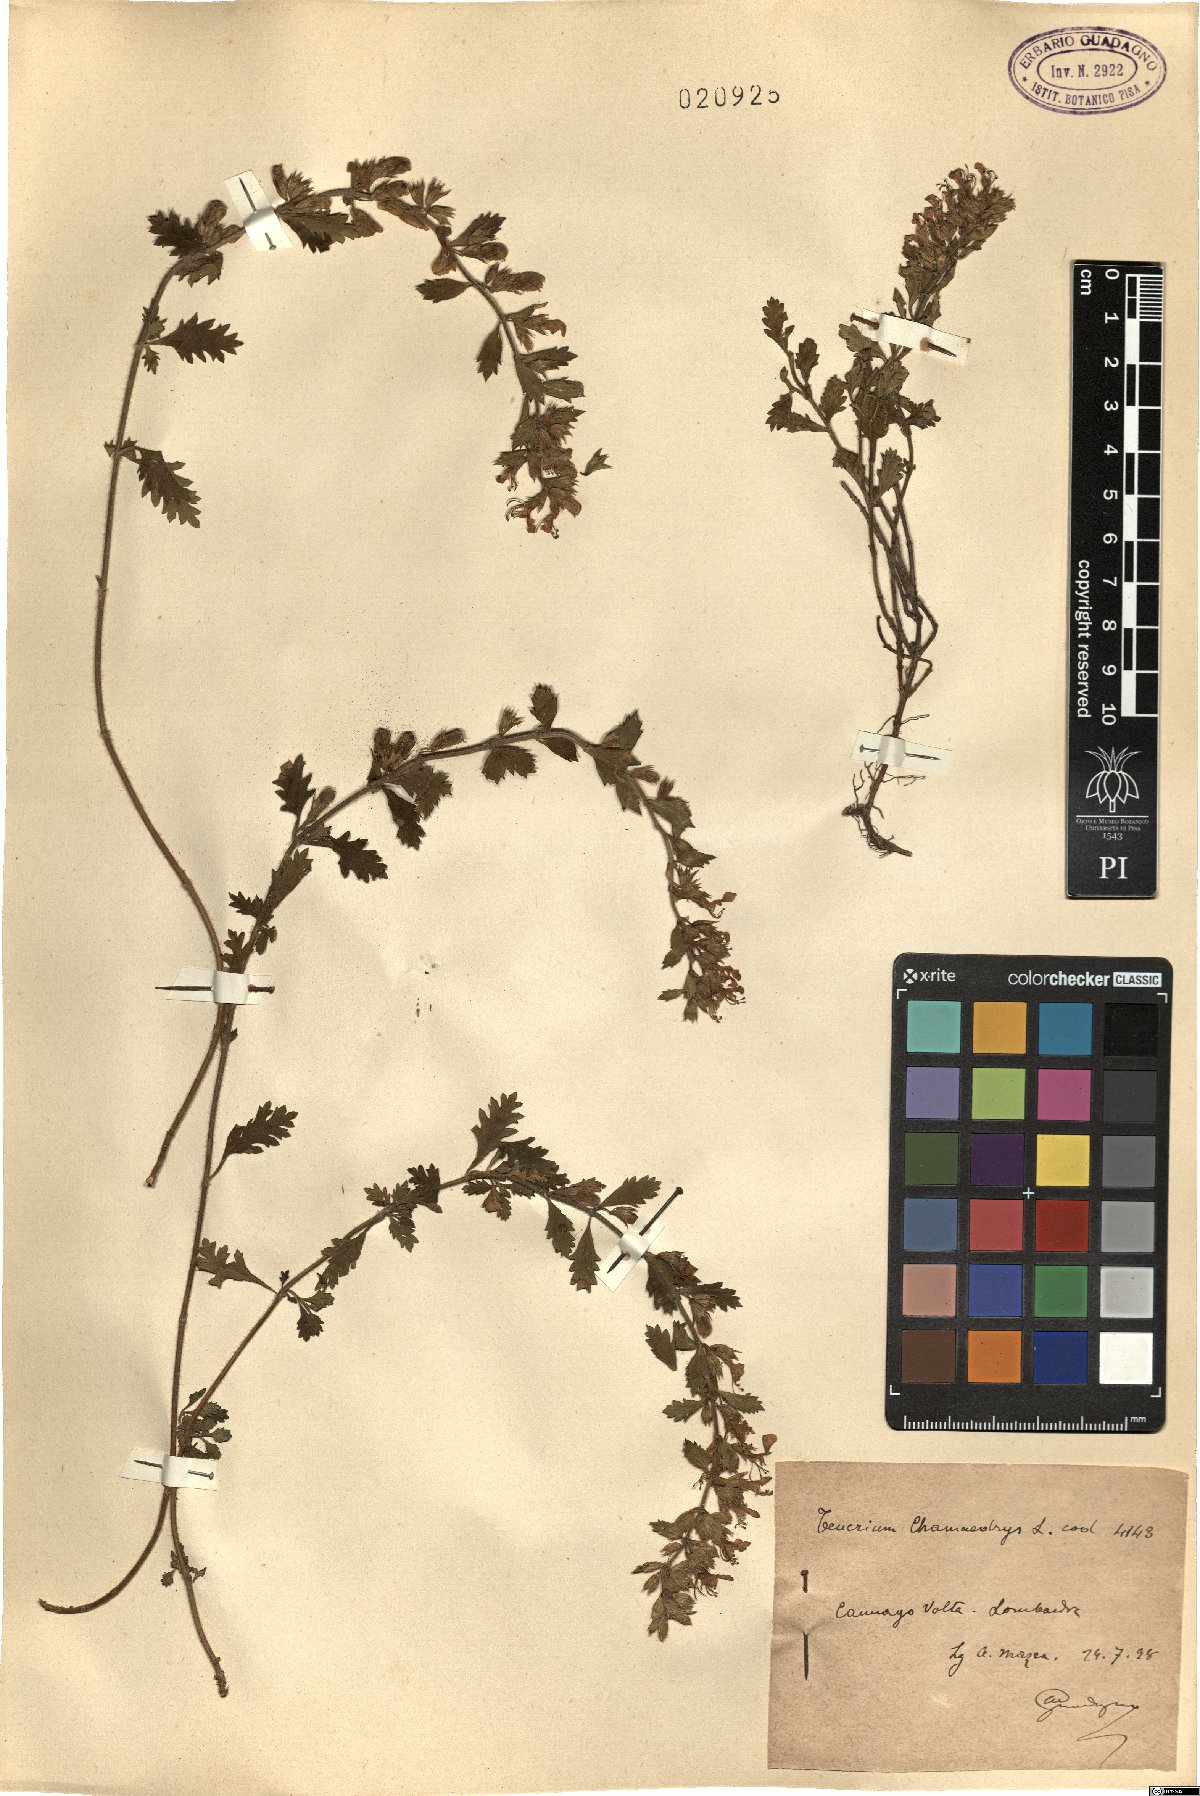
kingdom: Plantae
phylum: Tracheophyta
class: Magnoliopsida
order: Lamiales
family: Lamiaceae
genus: Teucrium
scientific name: Teucrium chamaedrys
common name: Wall germander
